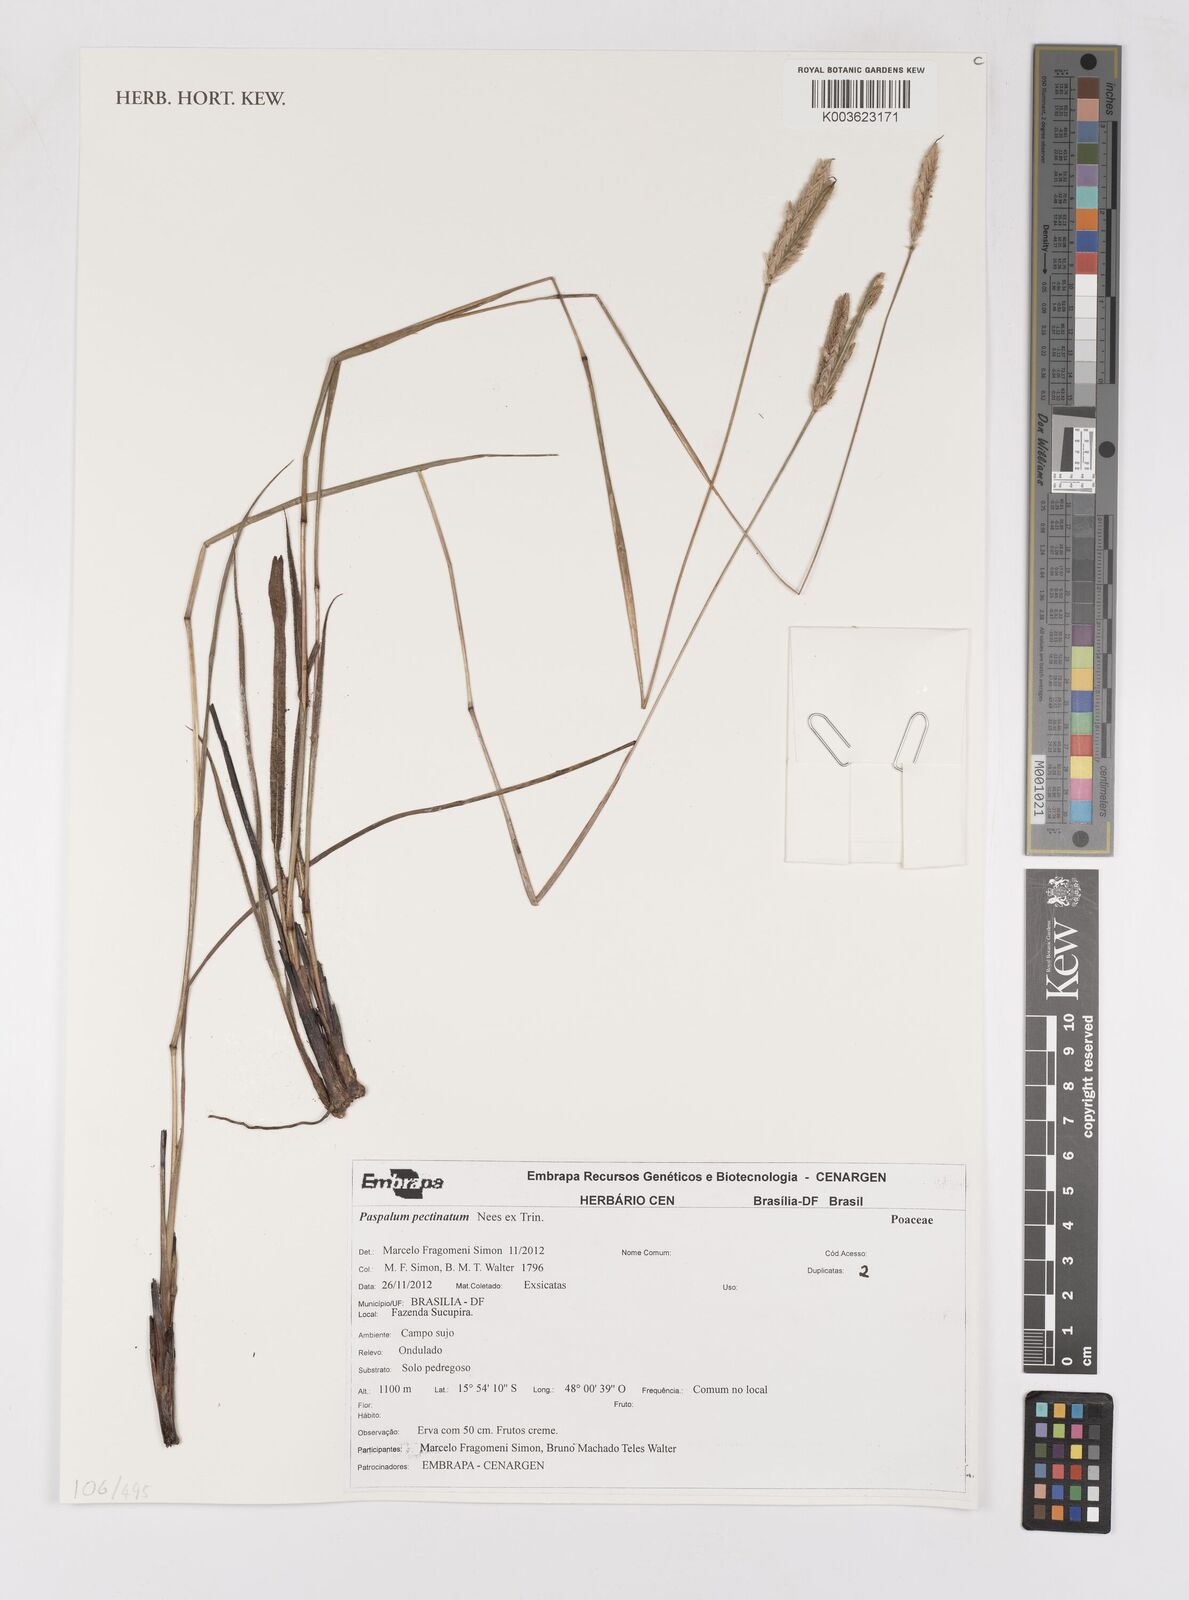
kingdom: Plantae
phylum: Tracheophyta
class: Liliopsida
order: Poales
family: Poaceae
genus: Paspalum
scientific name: Paspalum pectinatum
